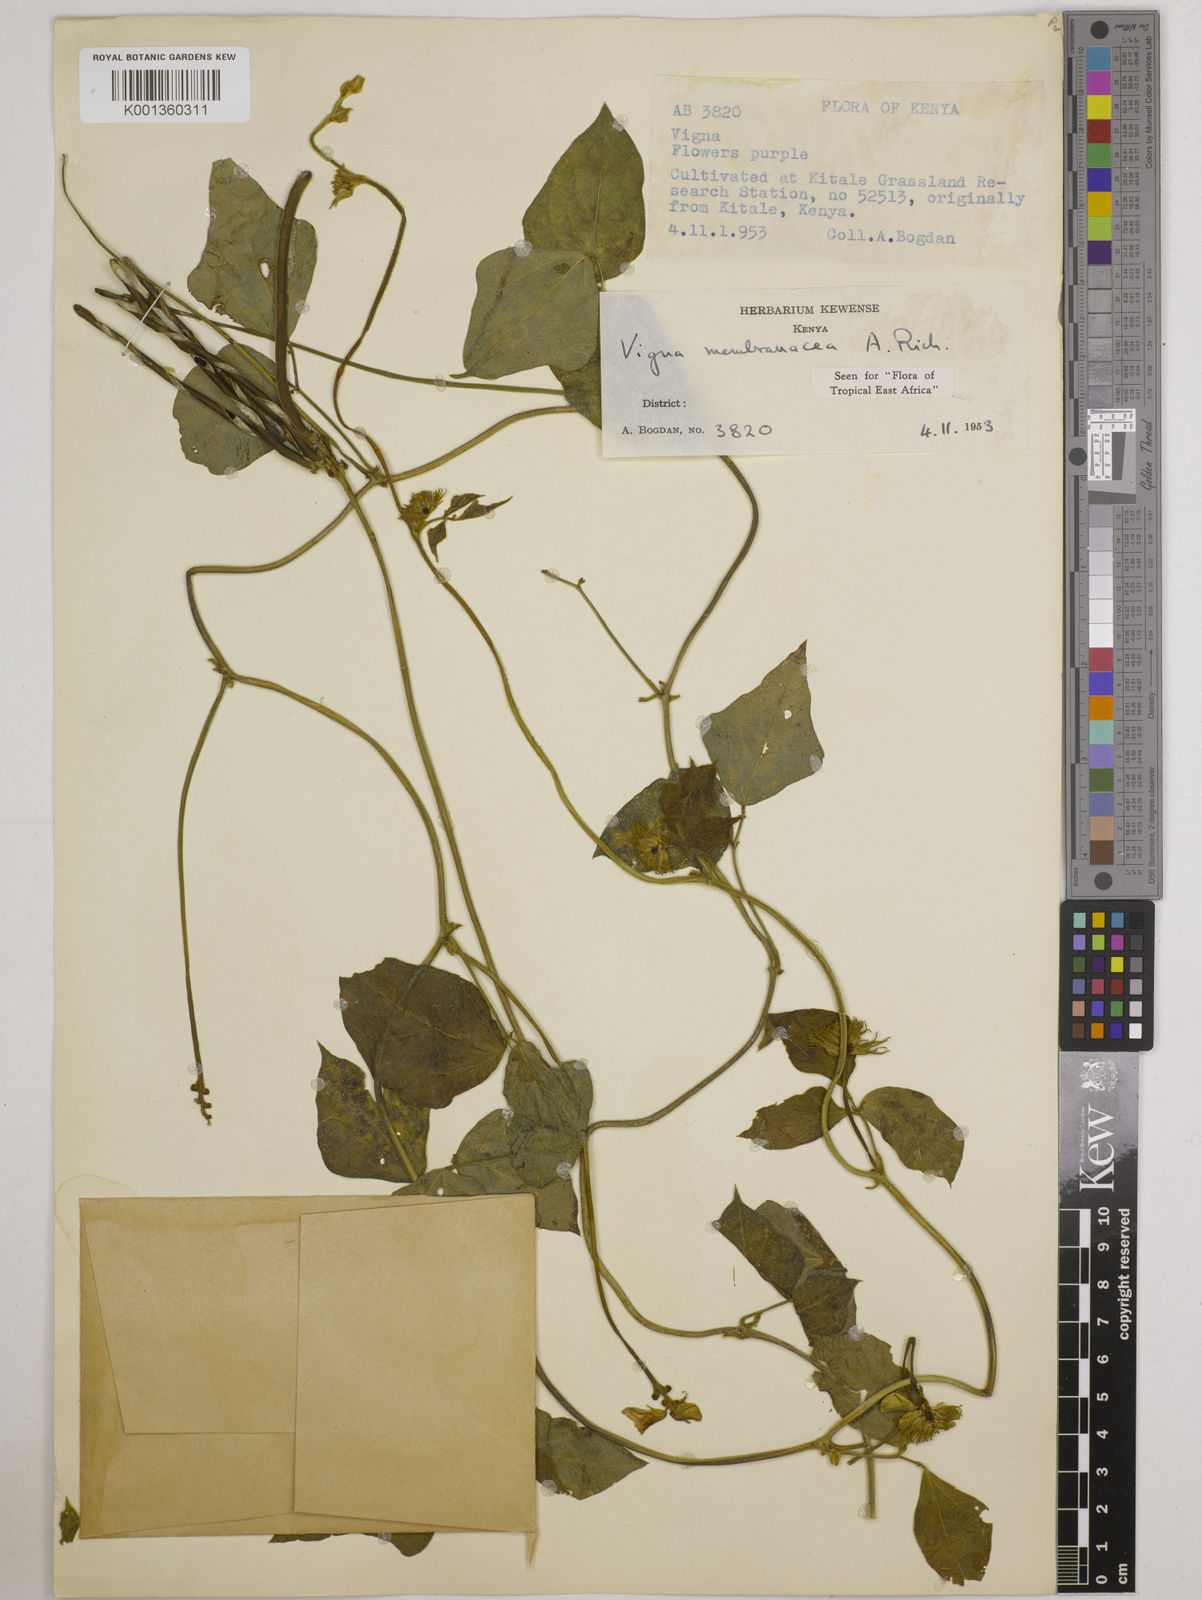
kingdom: Plantae
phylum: Tracheophyta
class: Magnoliopsida
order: Fabales
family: Fabaceae
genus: Vigna
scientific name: Vigna membranacea
